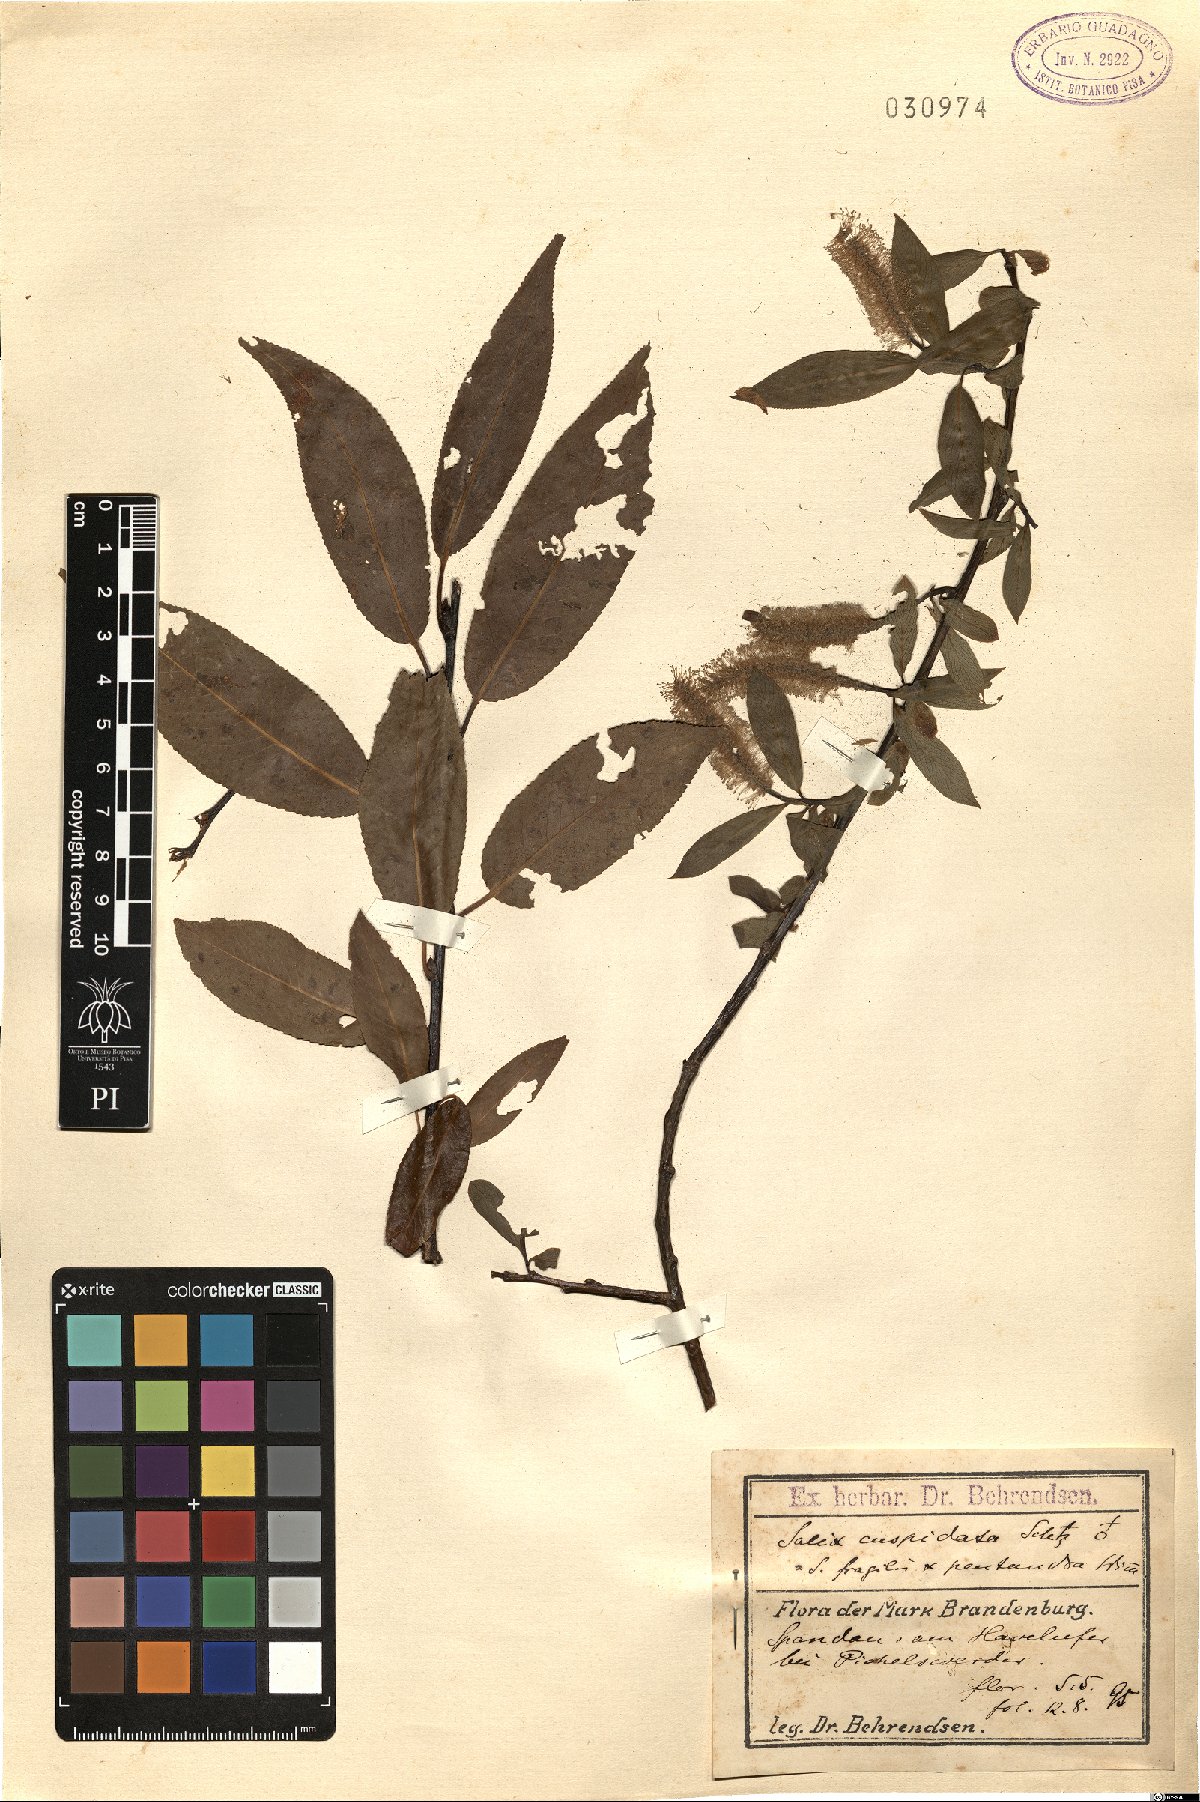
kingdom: Plantae
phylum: Tracheophyta
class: Magnoliopsida
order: Malpighiales
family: Salicaceae
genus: Salix
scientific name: Salix meyeriana
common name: Shiny-leaf willow
